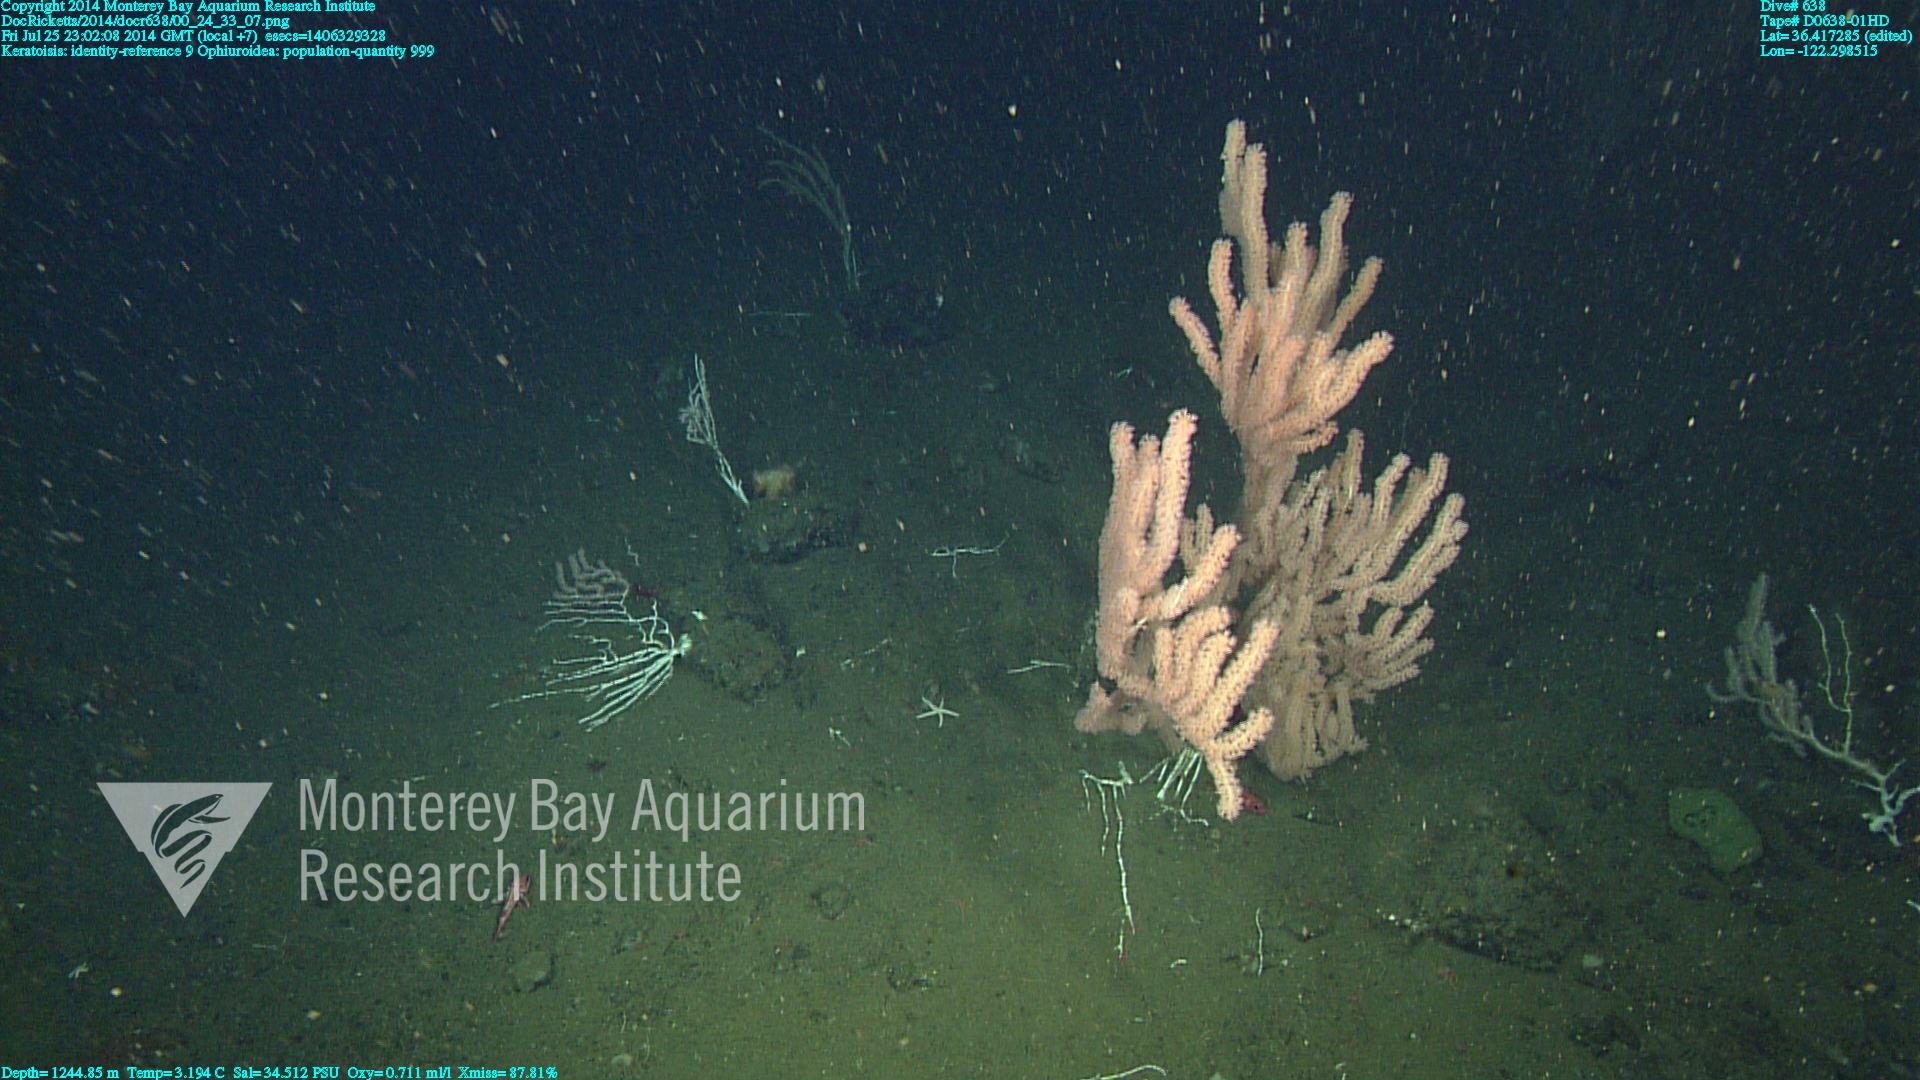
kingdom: Animalia
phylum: Cnidaria
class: Anthozoa
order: Scleralcyonacea
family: Keratoisididae
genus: Keratoisis
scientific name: Keratoisis
